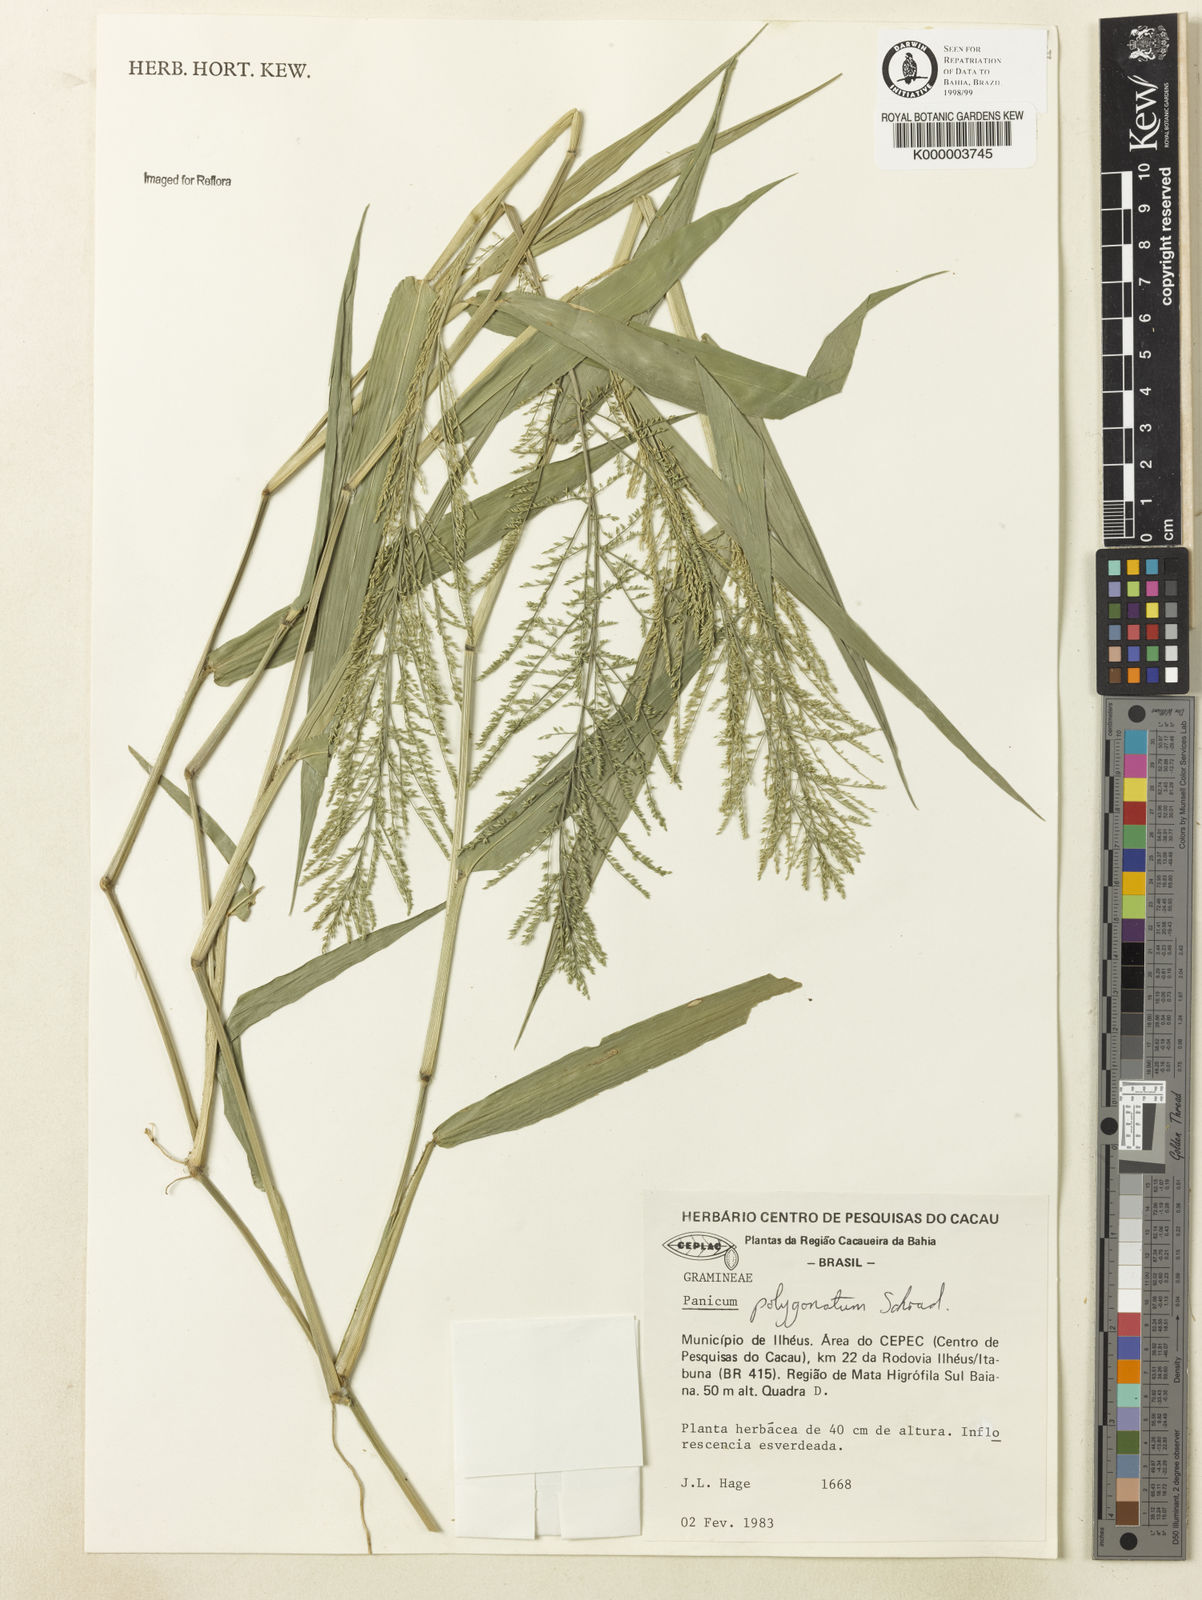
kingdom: Plantae
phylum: Tracheophyta
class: Liliopsida
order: Poales
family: Poaceae
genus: Rugoloa
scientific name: Rugoloa polygonata
